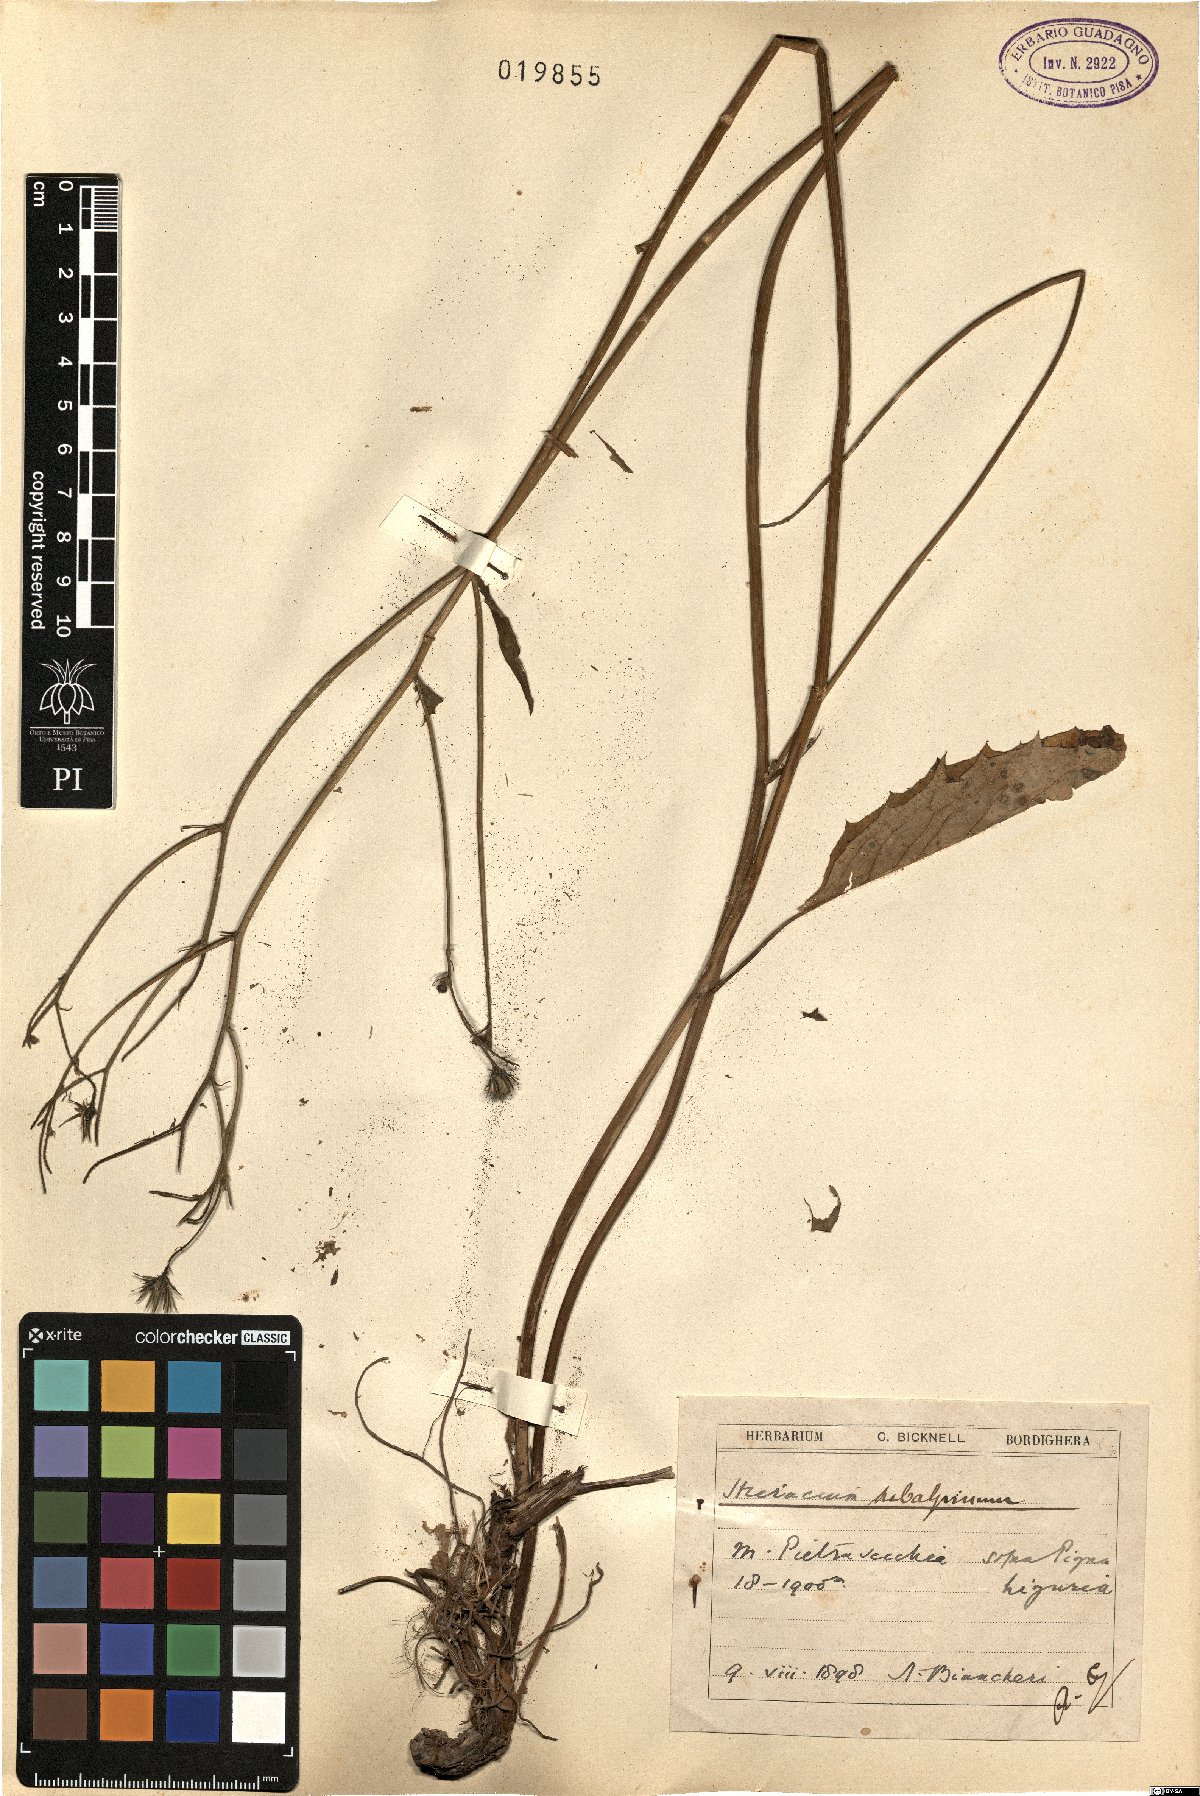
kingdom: Plantae
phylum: Tracheophyta
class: Magnoliopsida
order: Asterales
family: Asteraceae
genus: Hieracium
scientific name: Hieracium umbrosum
